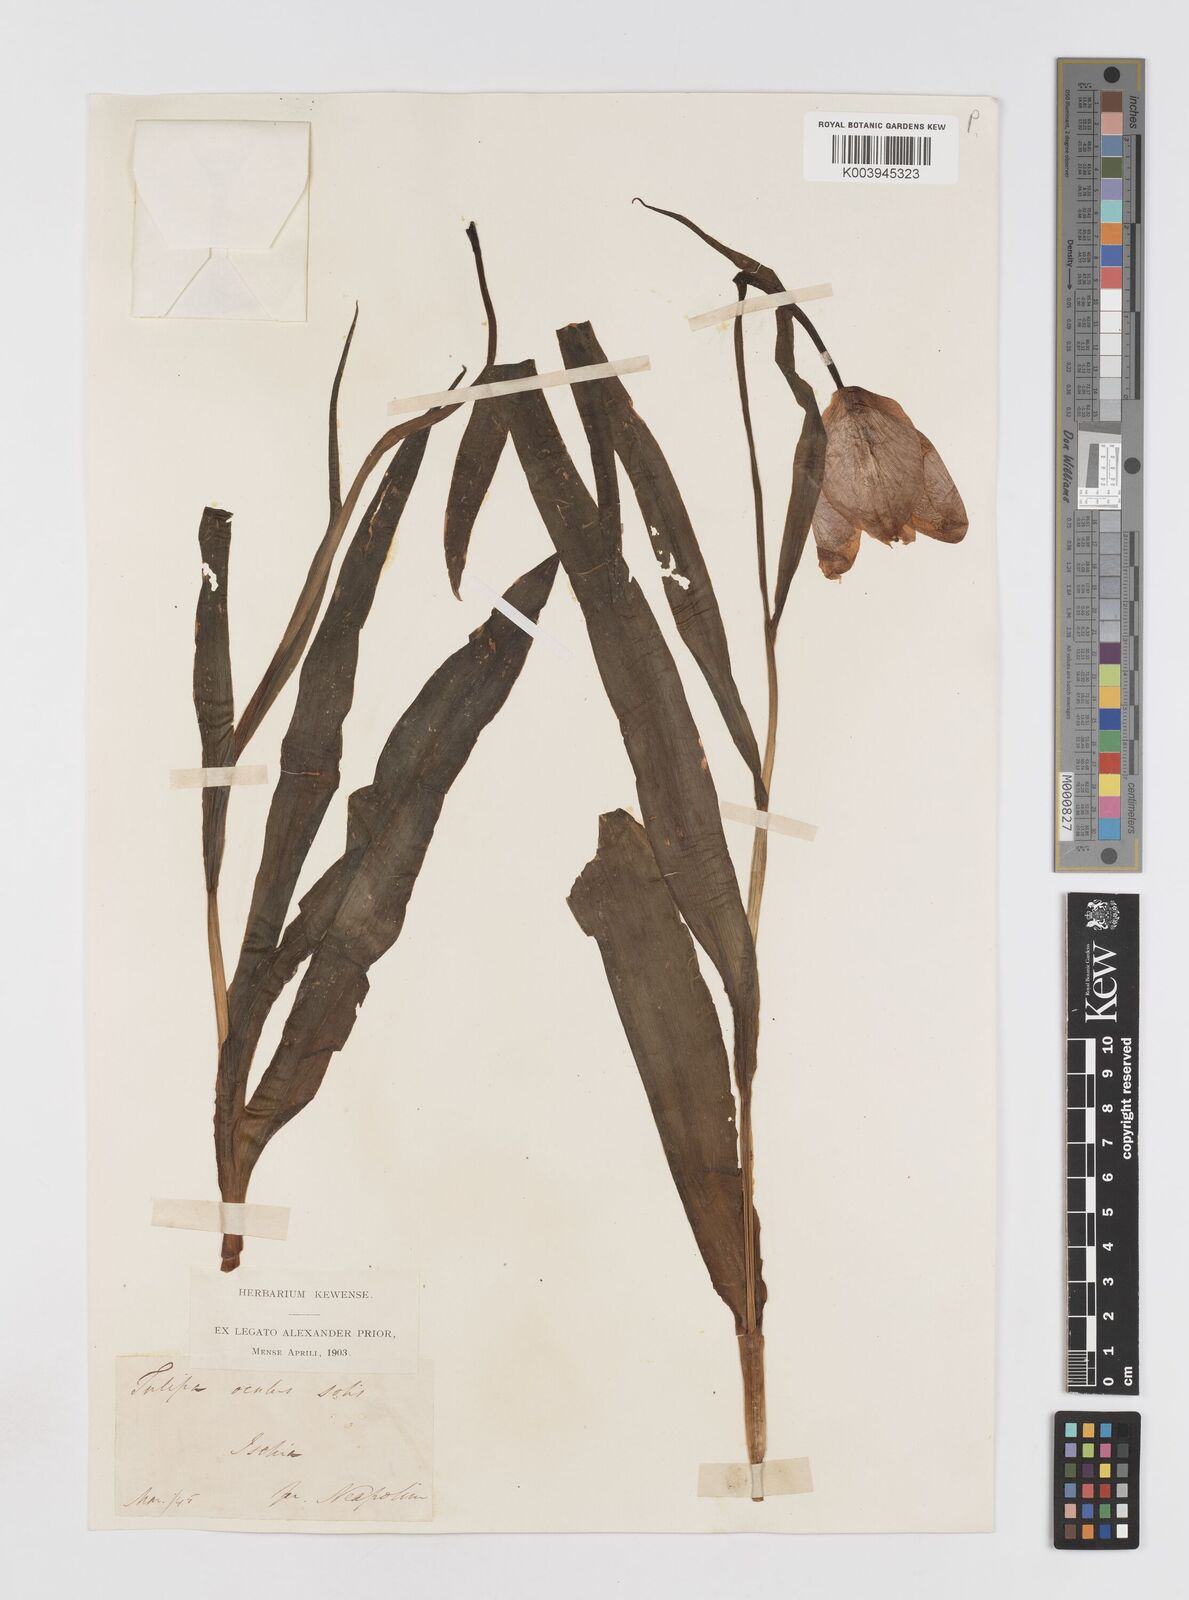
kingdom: Plantae
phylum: Tracheophyta
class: Liliopsida
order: Liliales
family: Liliaceae
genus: Tulipa
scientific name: Tulipa agenensis
